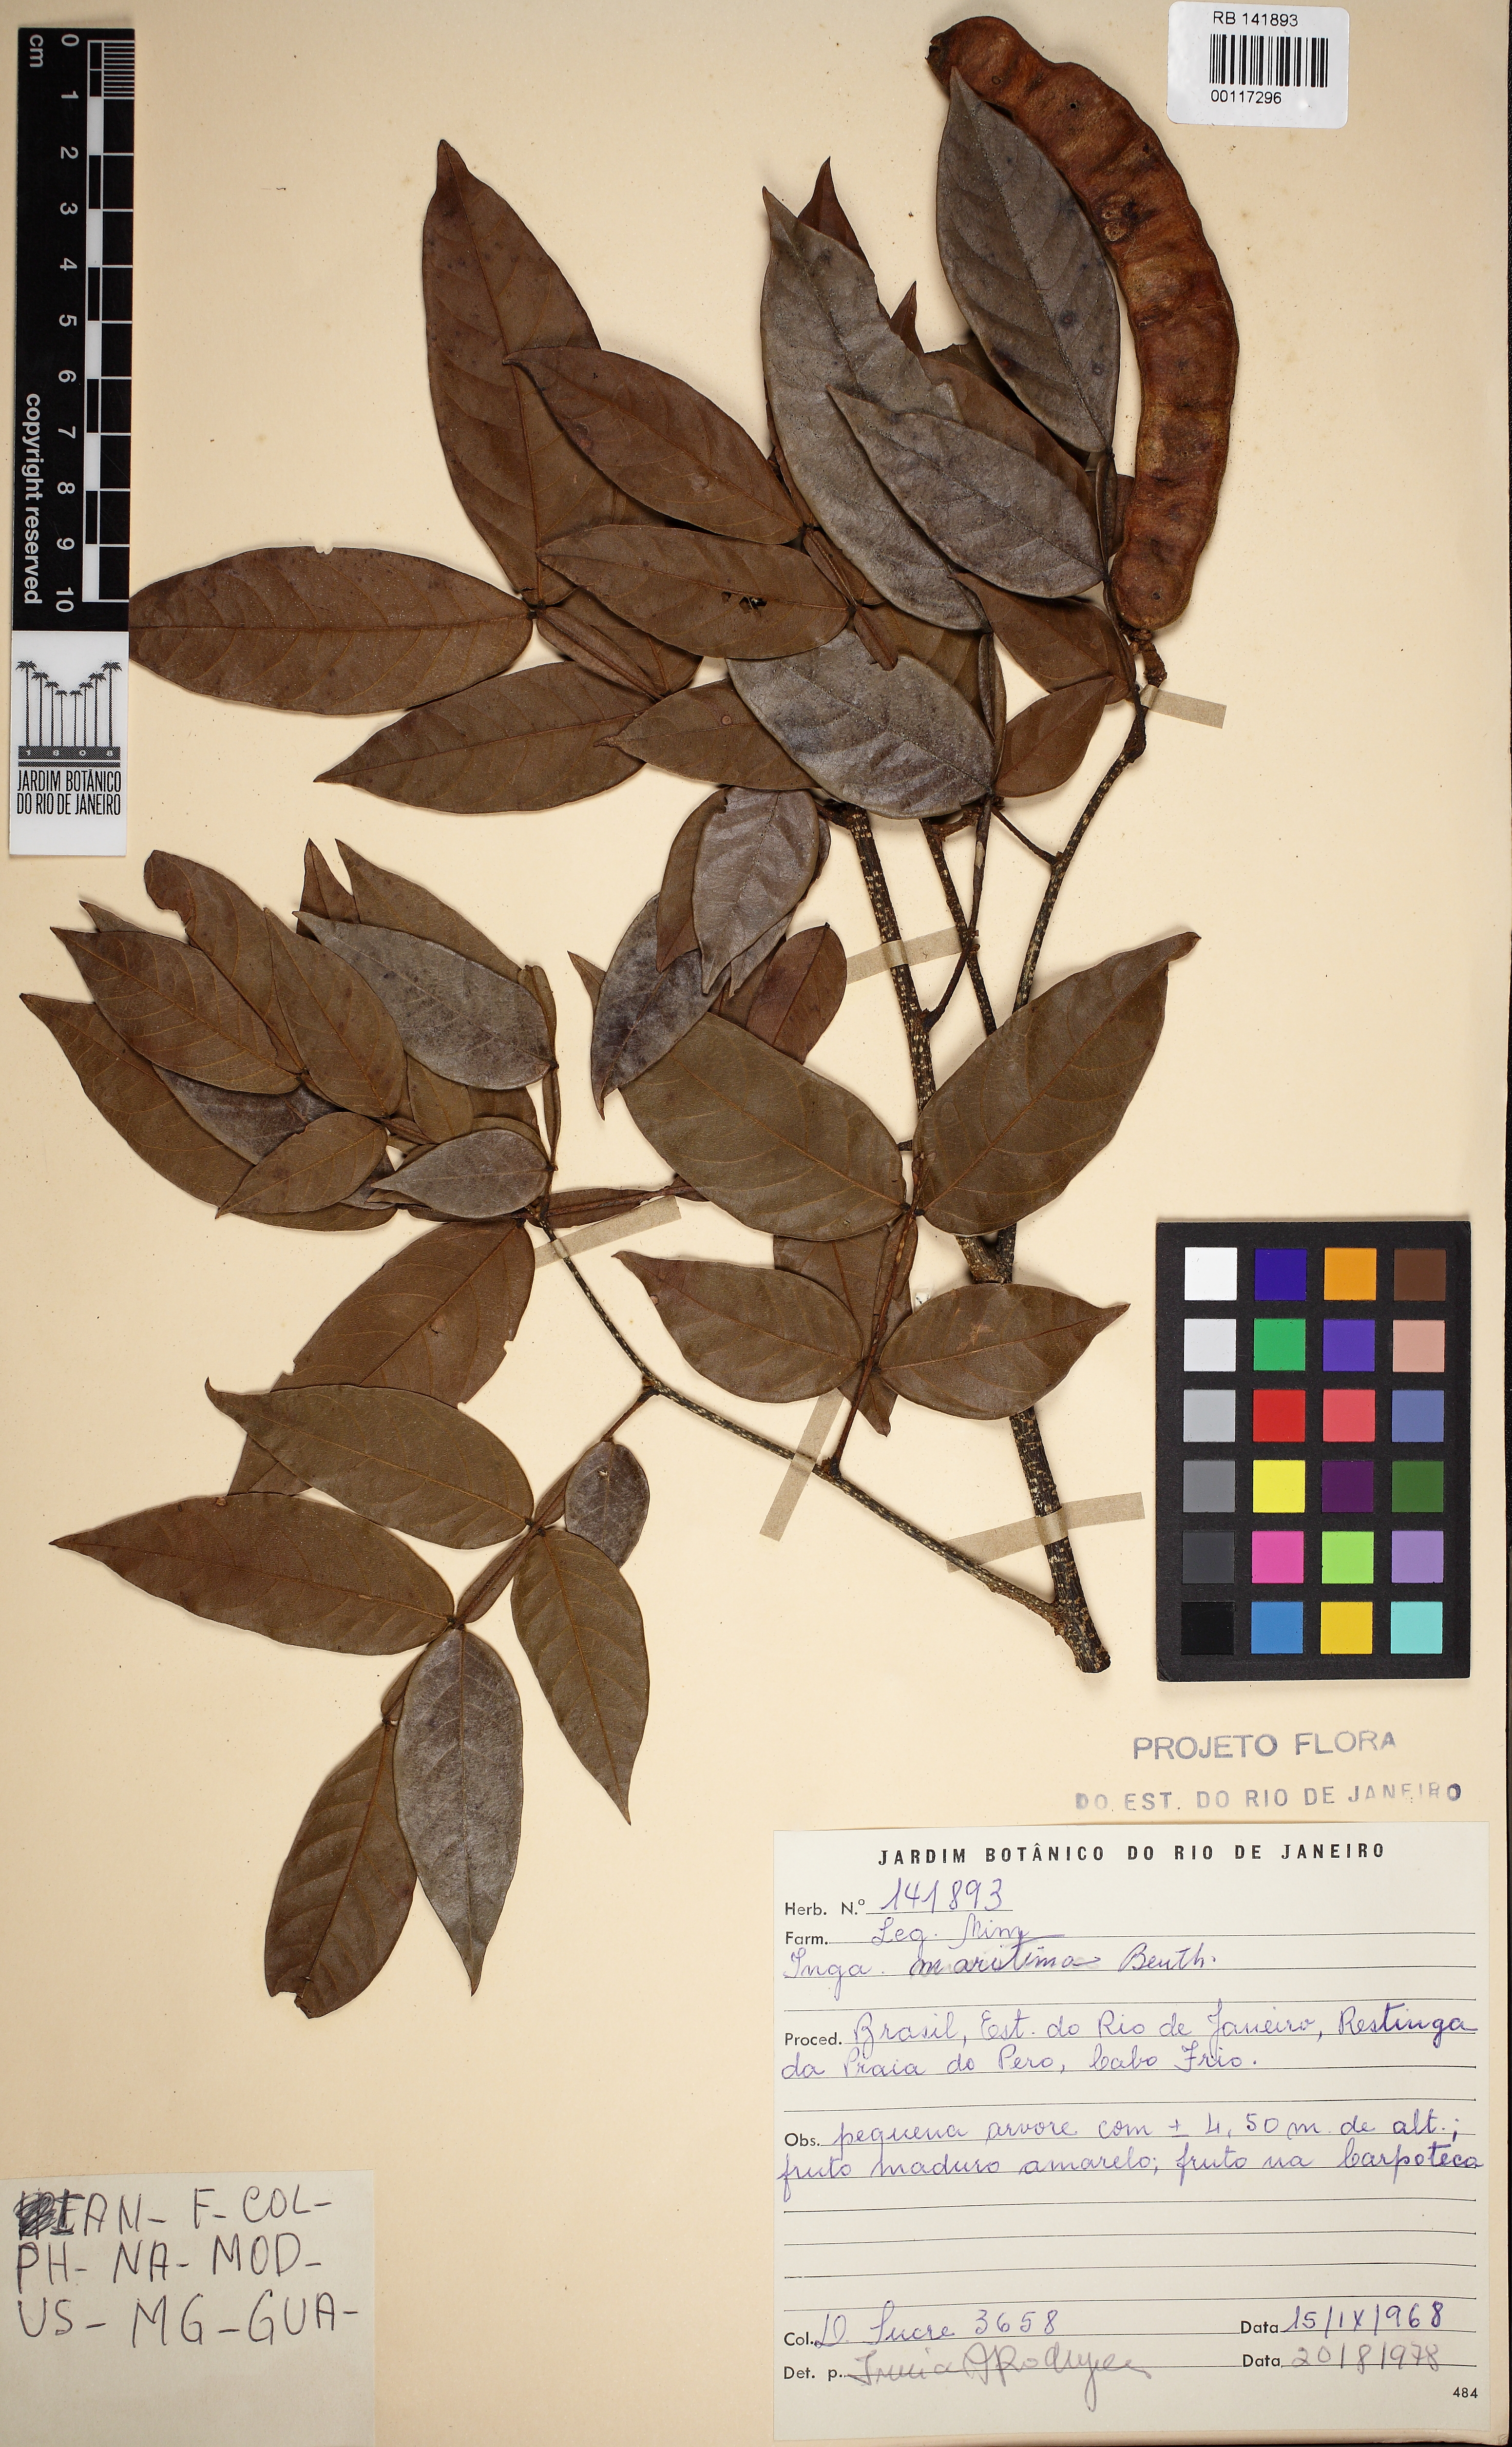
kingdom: Plantae
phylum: Tracheophyta
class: Magnoliopsida
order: Fabales
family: Fabaceae
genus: Inga
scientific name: Inga maritima
